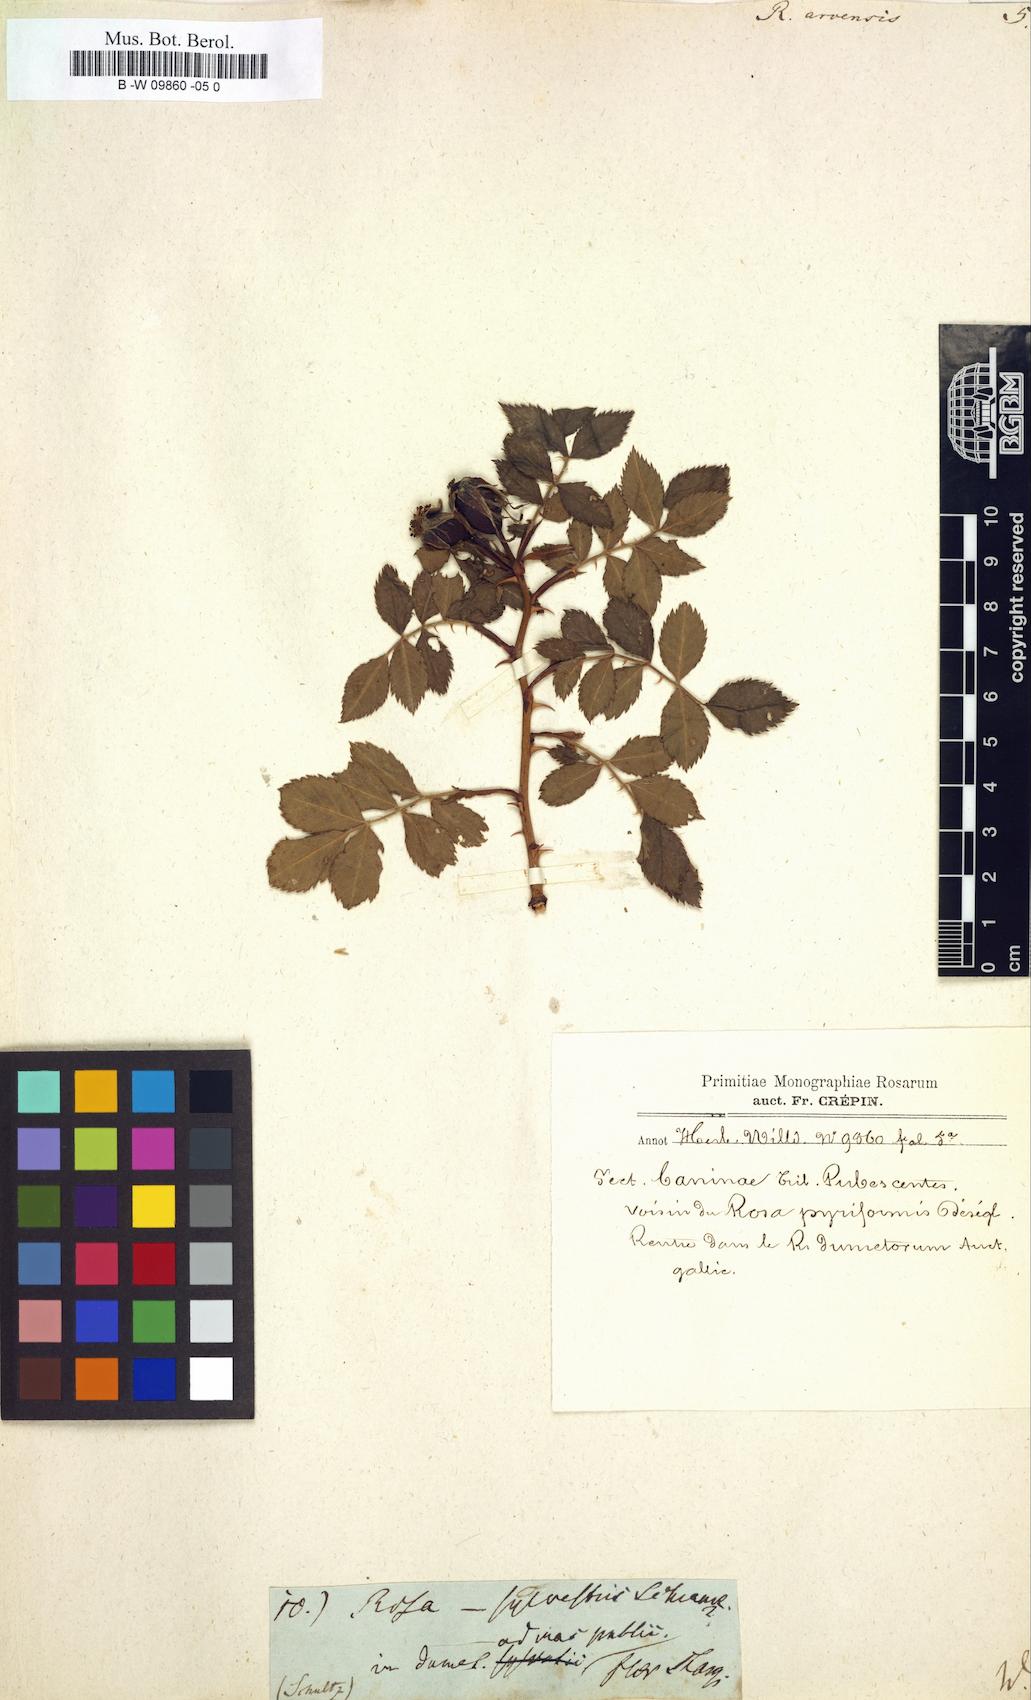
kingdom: Plantae
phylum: Tracheophyta
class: Magnoliopsida
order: Rosales
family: Rosaceae
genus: Rosa
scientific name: Rosa arvensis
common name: Field rose
